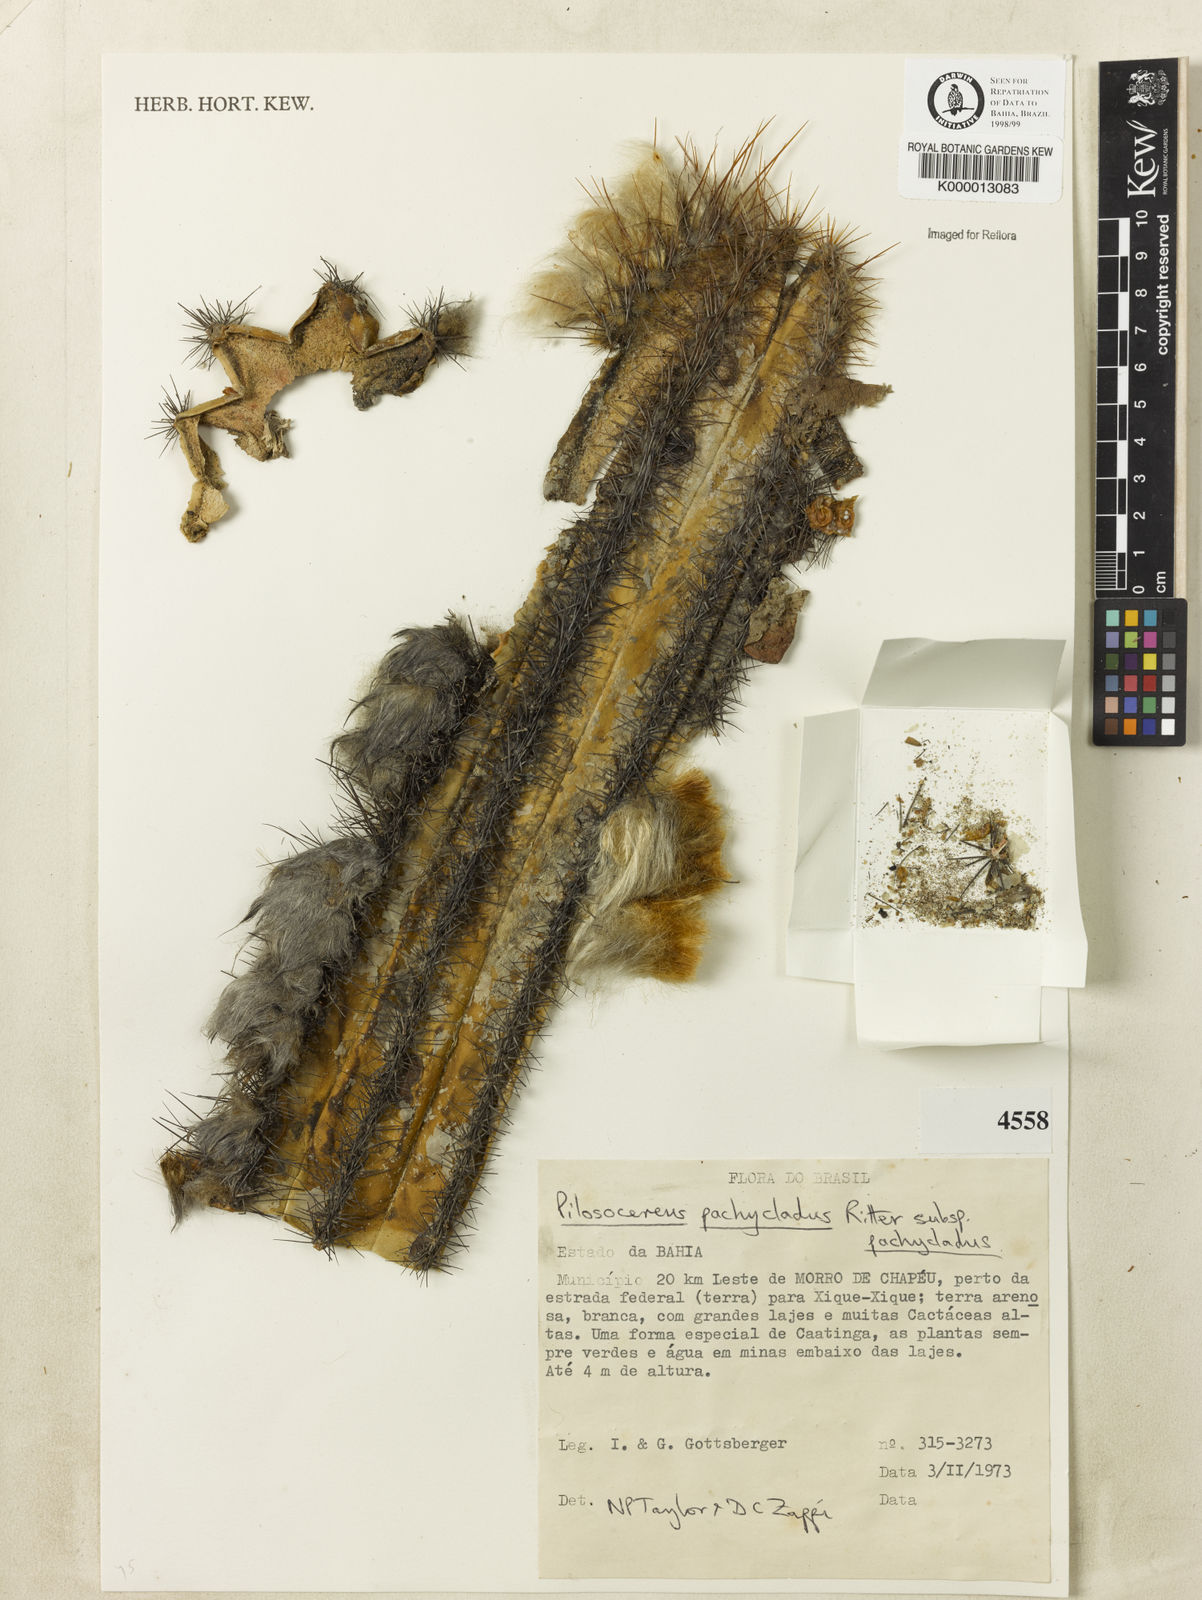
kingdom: Plantae
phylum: Tracheophyta
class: Magnoliopsida
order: Caryophyllales
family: Cactaceae
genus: Pilosocereus
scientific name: Pilosocereus pachycladus
